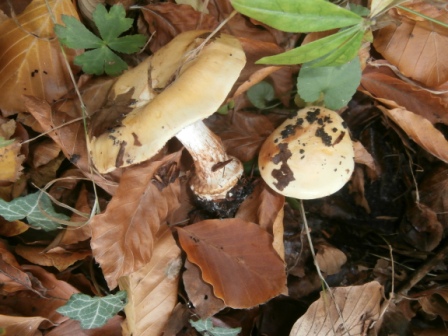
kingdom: Fungi
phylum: Basidiomycota
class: Agaricomycetes
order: Agaricales
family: Cortinariaceae
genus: Phlegmacium
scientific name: Phlegmacium aquilanum
